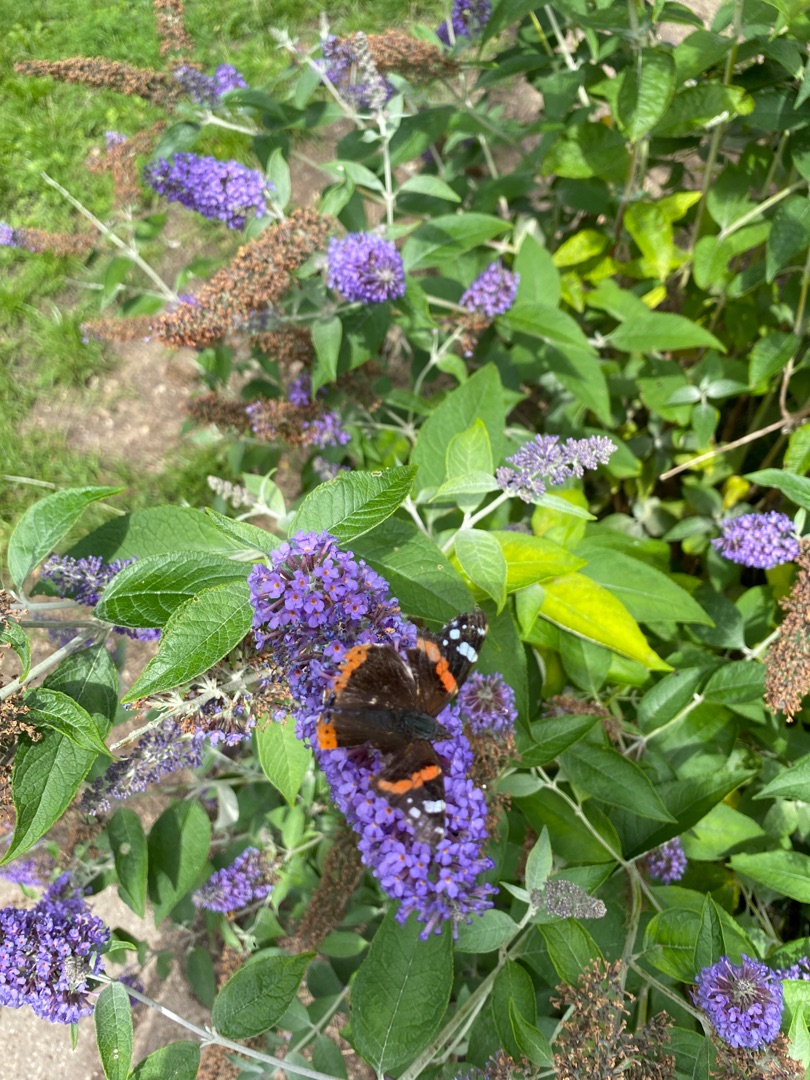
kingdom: Animalia
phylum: Arthropoda
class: Insecta
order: Lepidoptera
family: Nymphalidae
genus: Vanessa
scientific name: Vanessa atalanta
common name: Admiral
